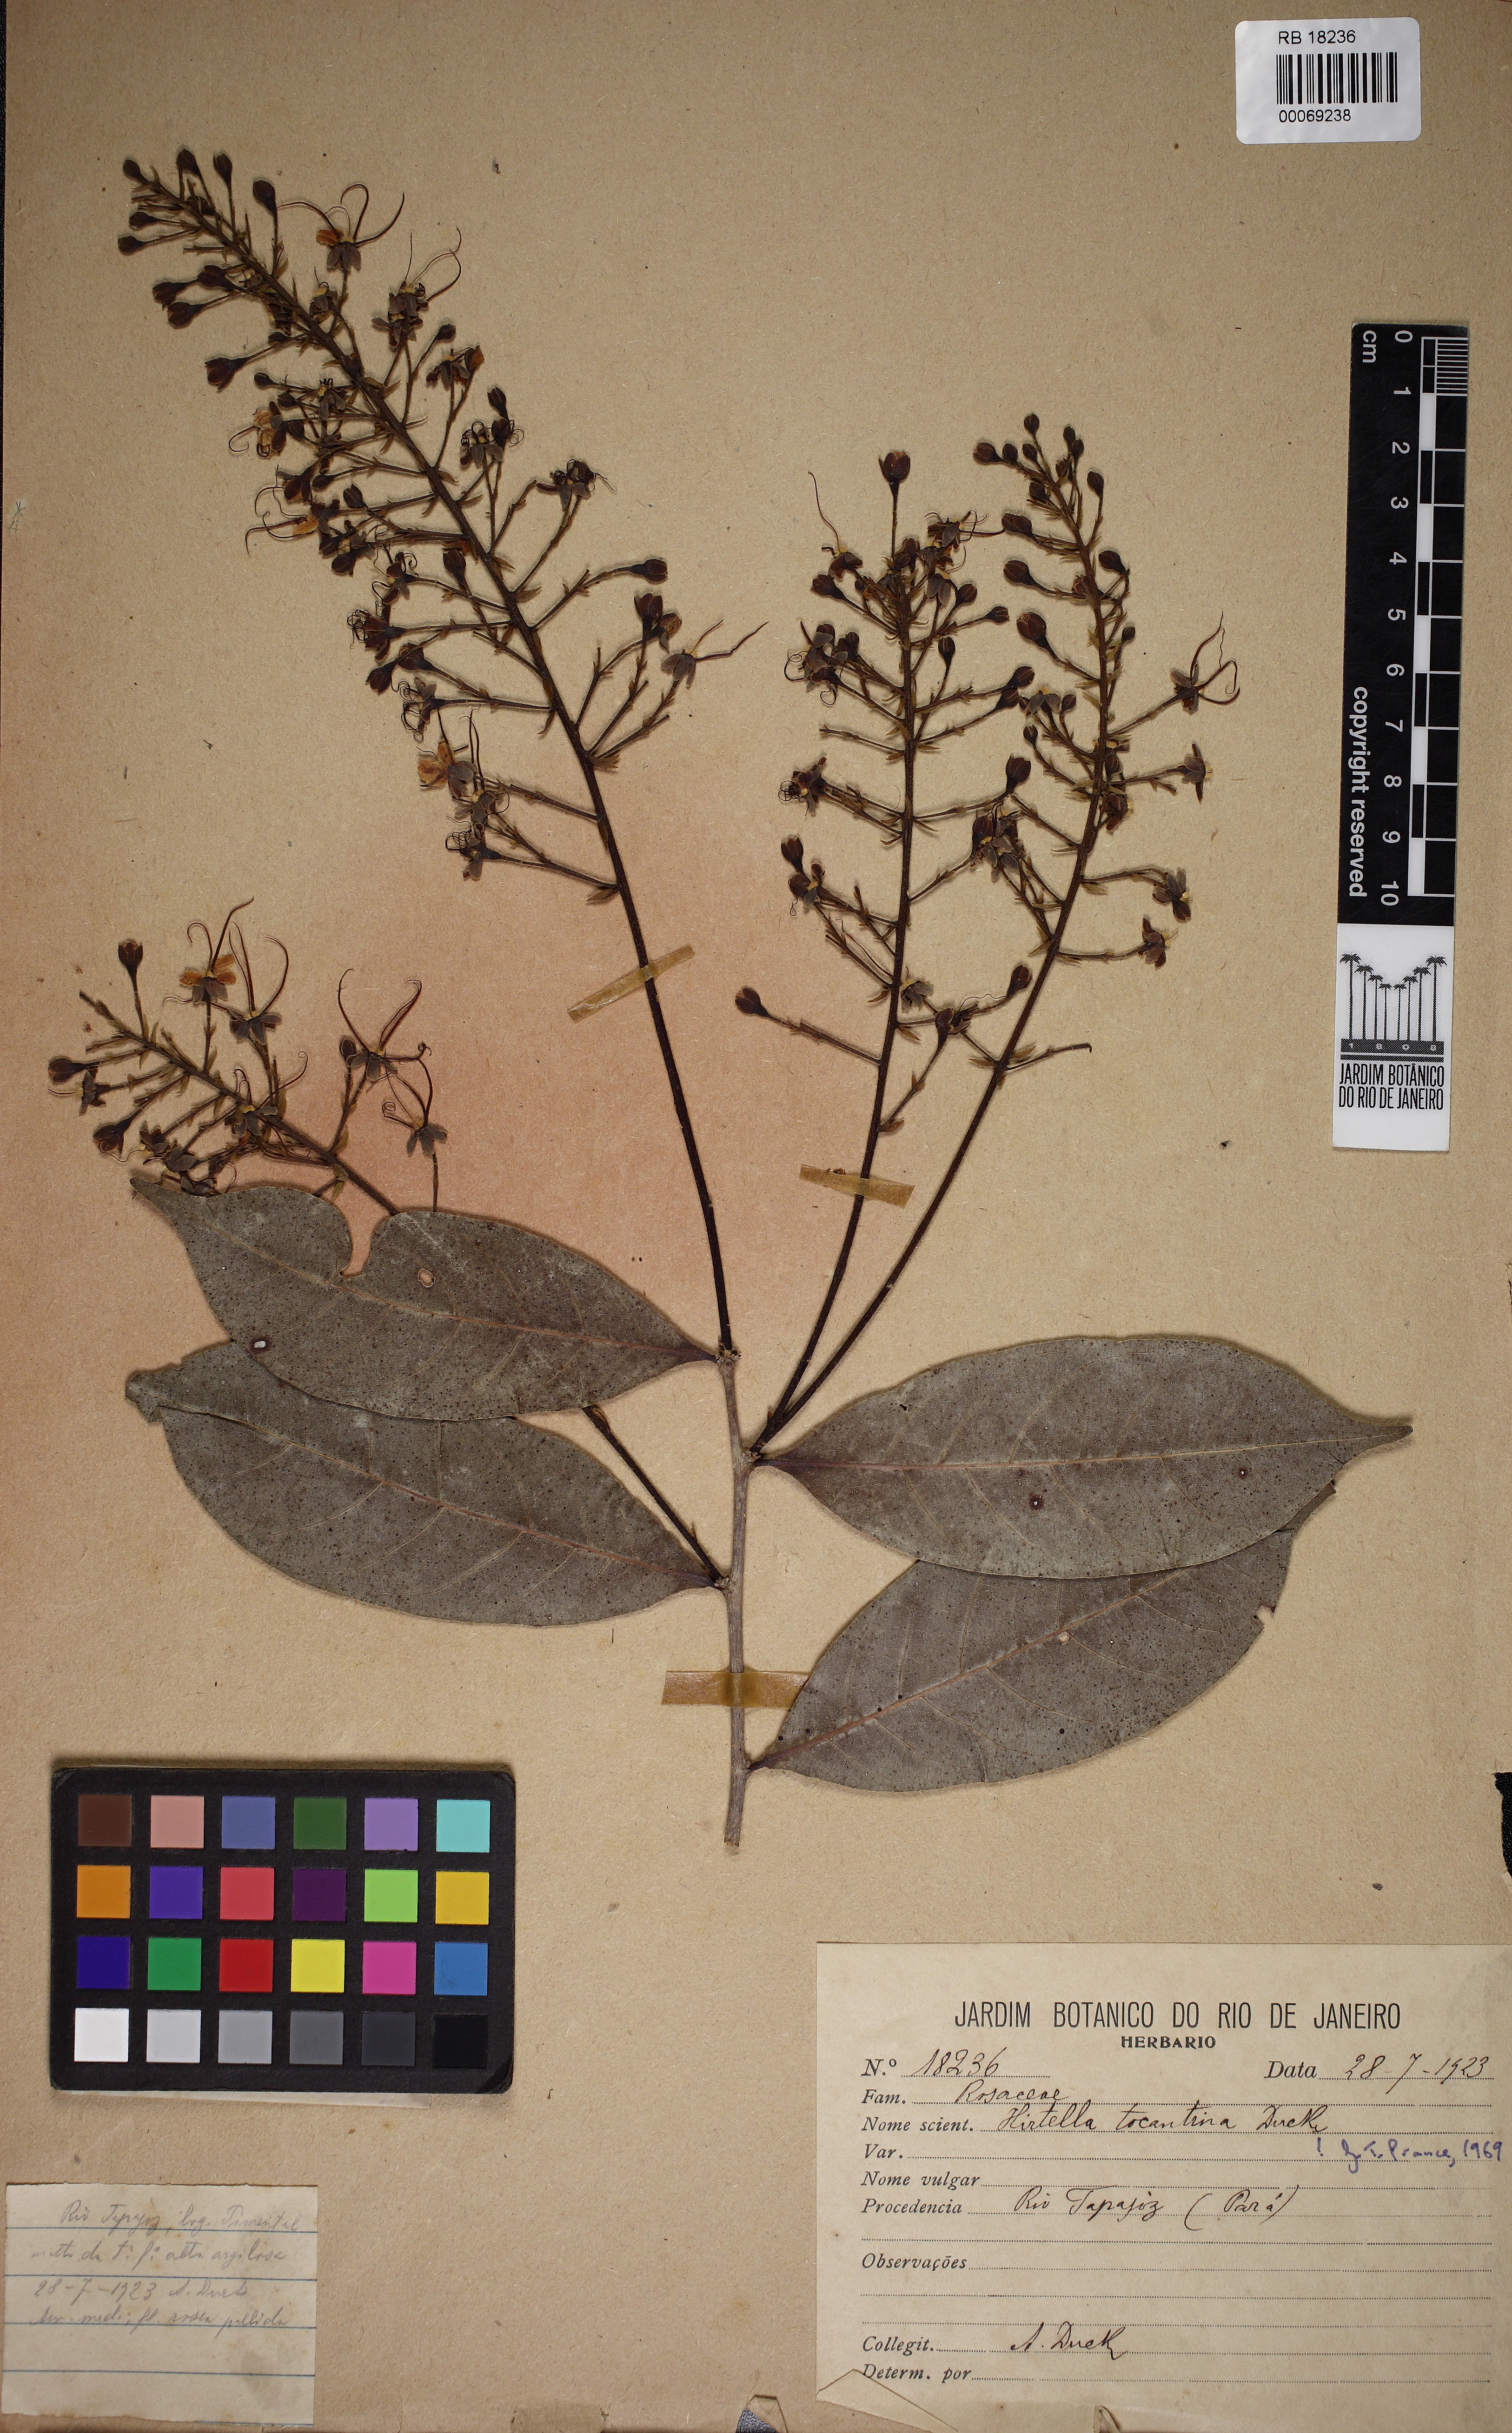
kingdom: Plantae
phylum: Tracheophyta
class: Magnoliopsida
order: Malpighiales
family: Chrysobalanaceae
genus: Hirtella
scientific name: Hirtella tocantina
